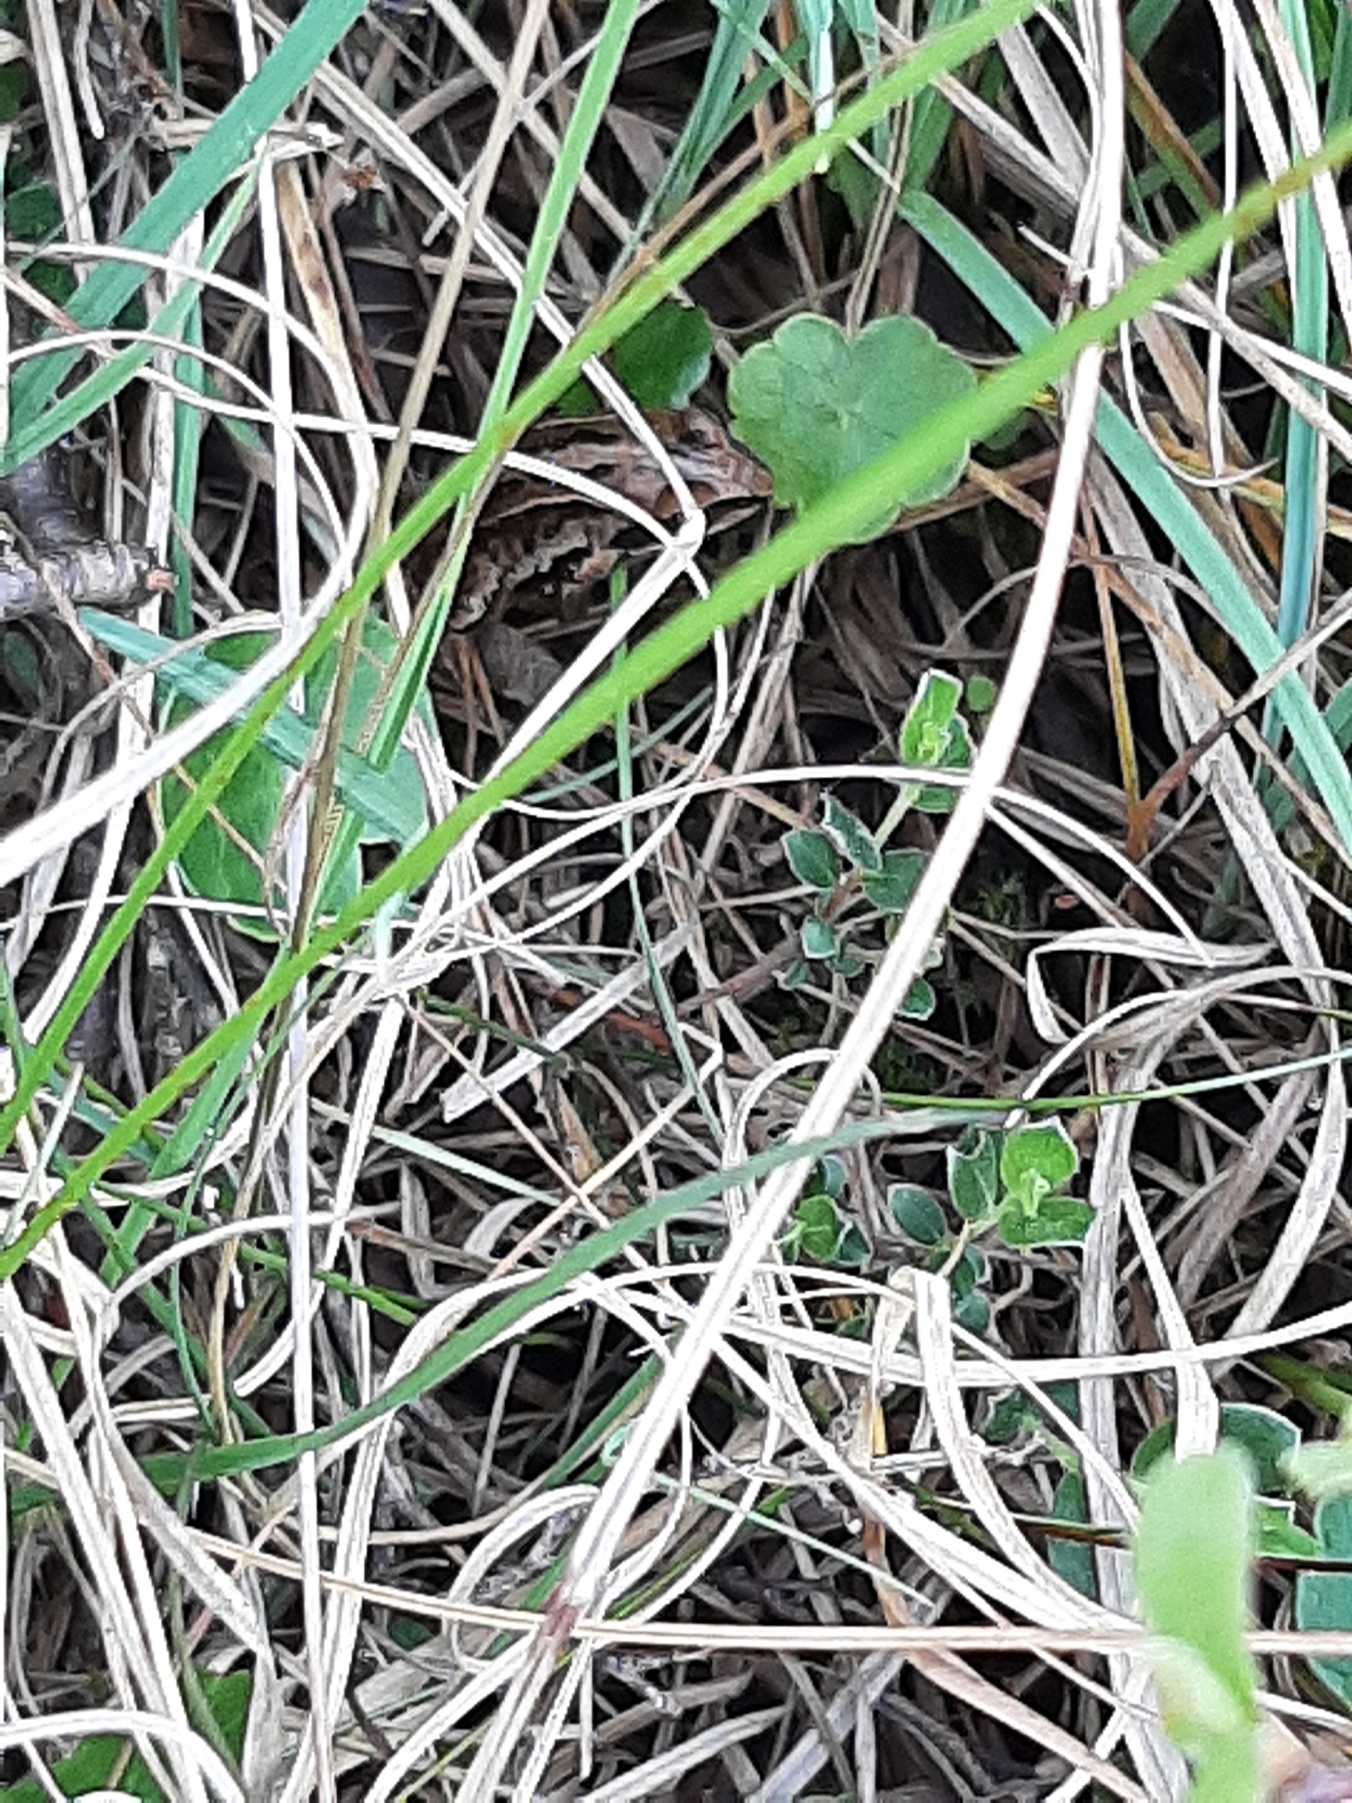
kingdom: Plantae
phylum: Tracheophyta
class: Magnoliopsida
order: Apiales
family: Araliaceae
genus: Hydrocotyle
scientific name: Hydrocotyle vulgaris
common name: Vandnavle
